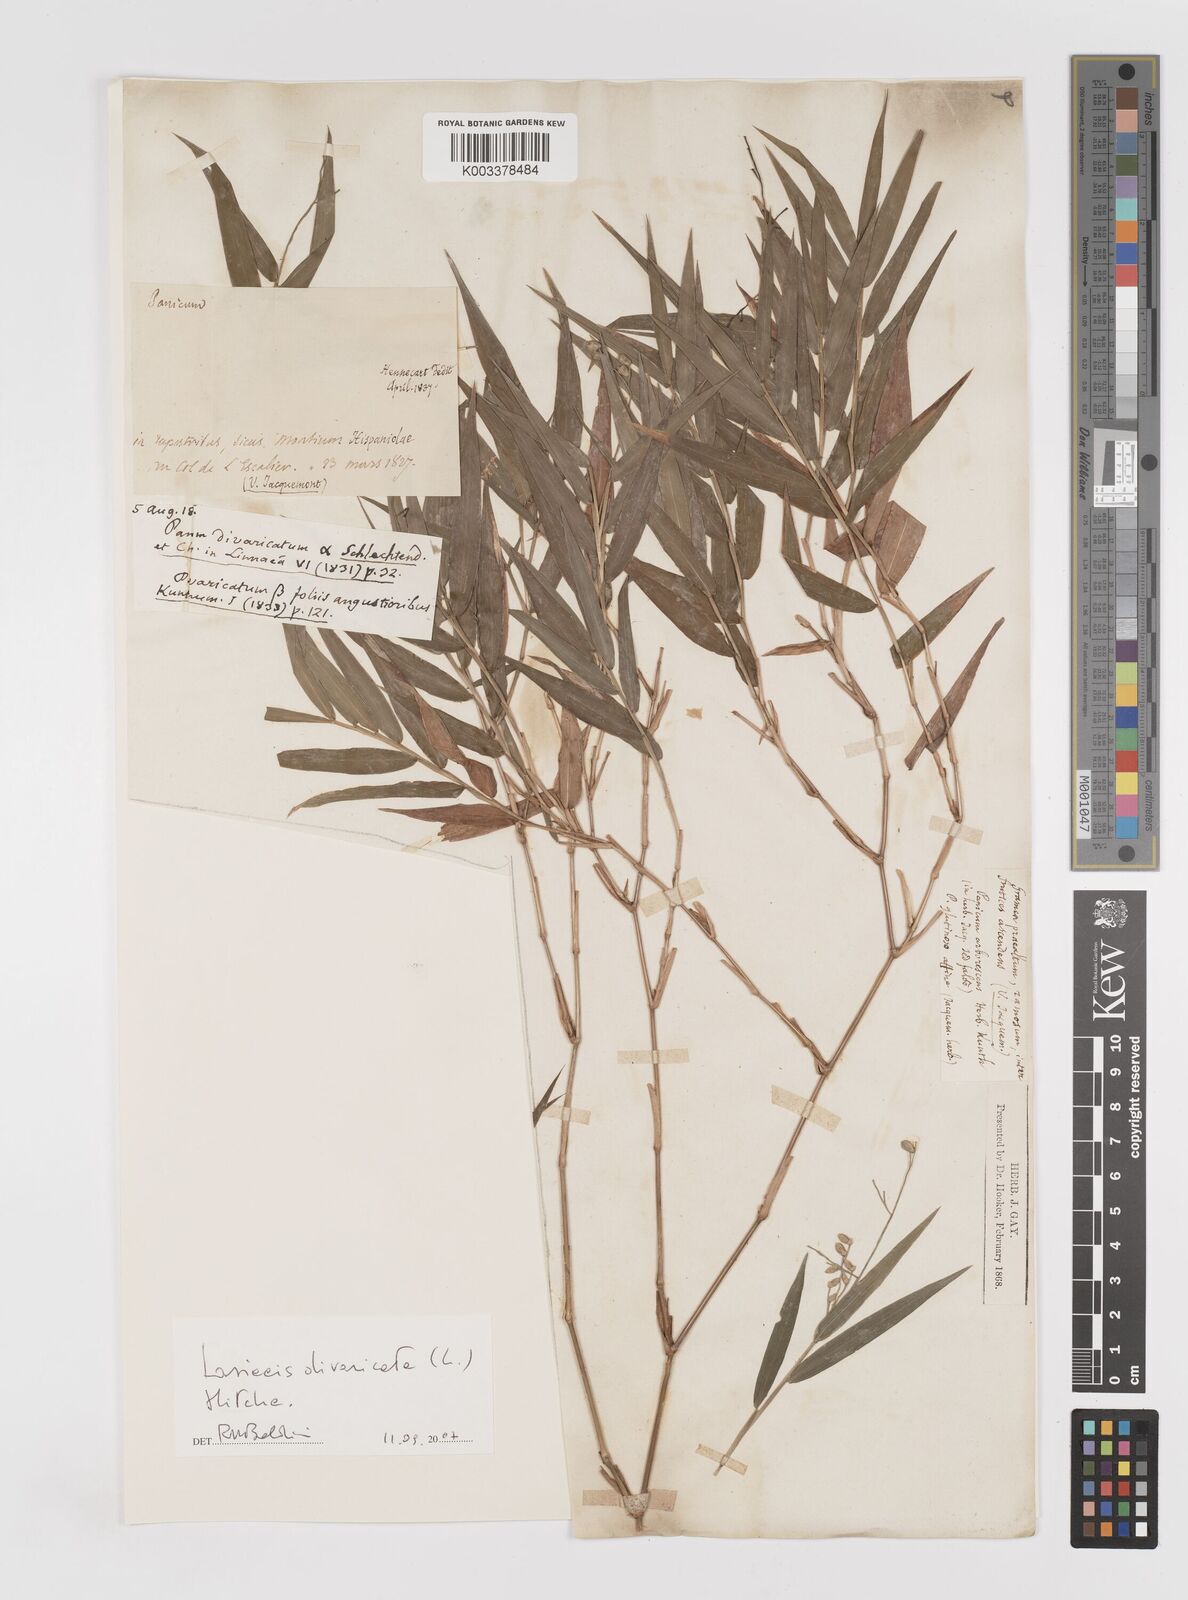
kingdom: Plantae
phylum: Tracheophyta
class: Liliopsida
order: Poales
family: Poaceae
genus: Lasiacis
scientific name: Lasiacis divaricata
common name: Smallcane
